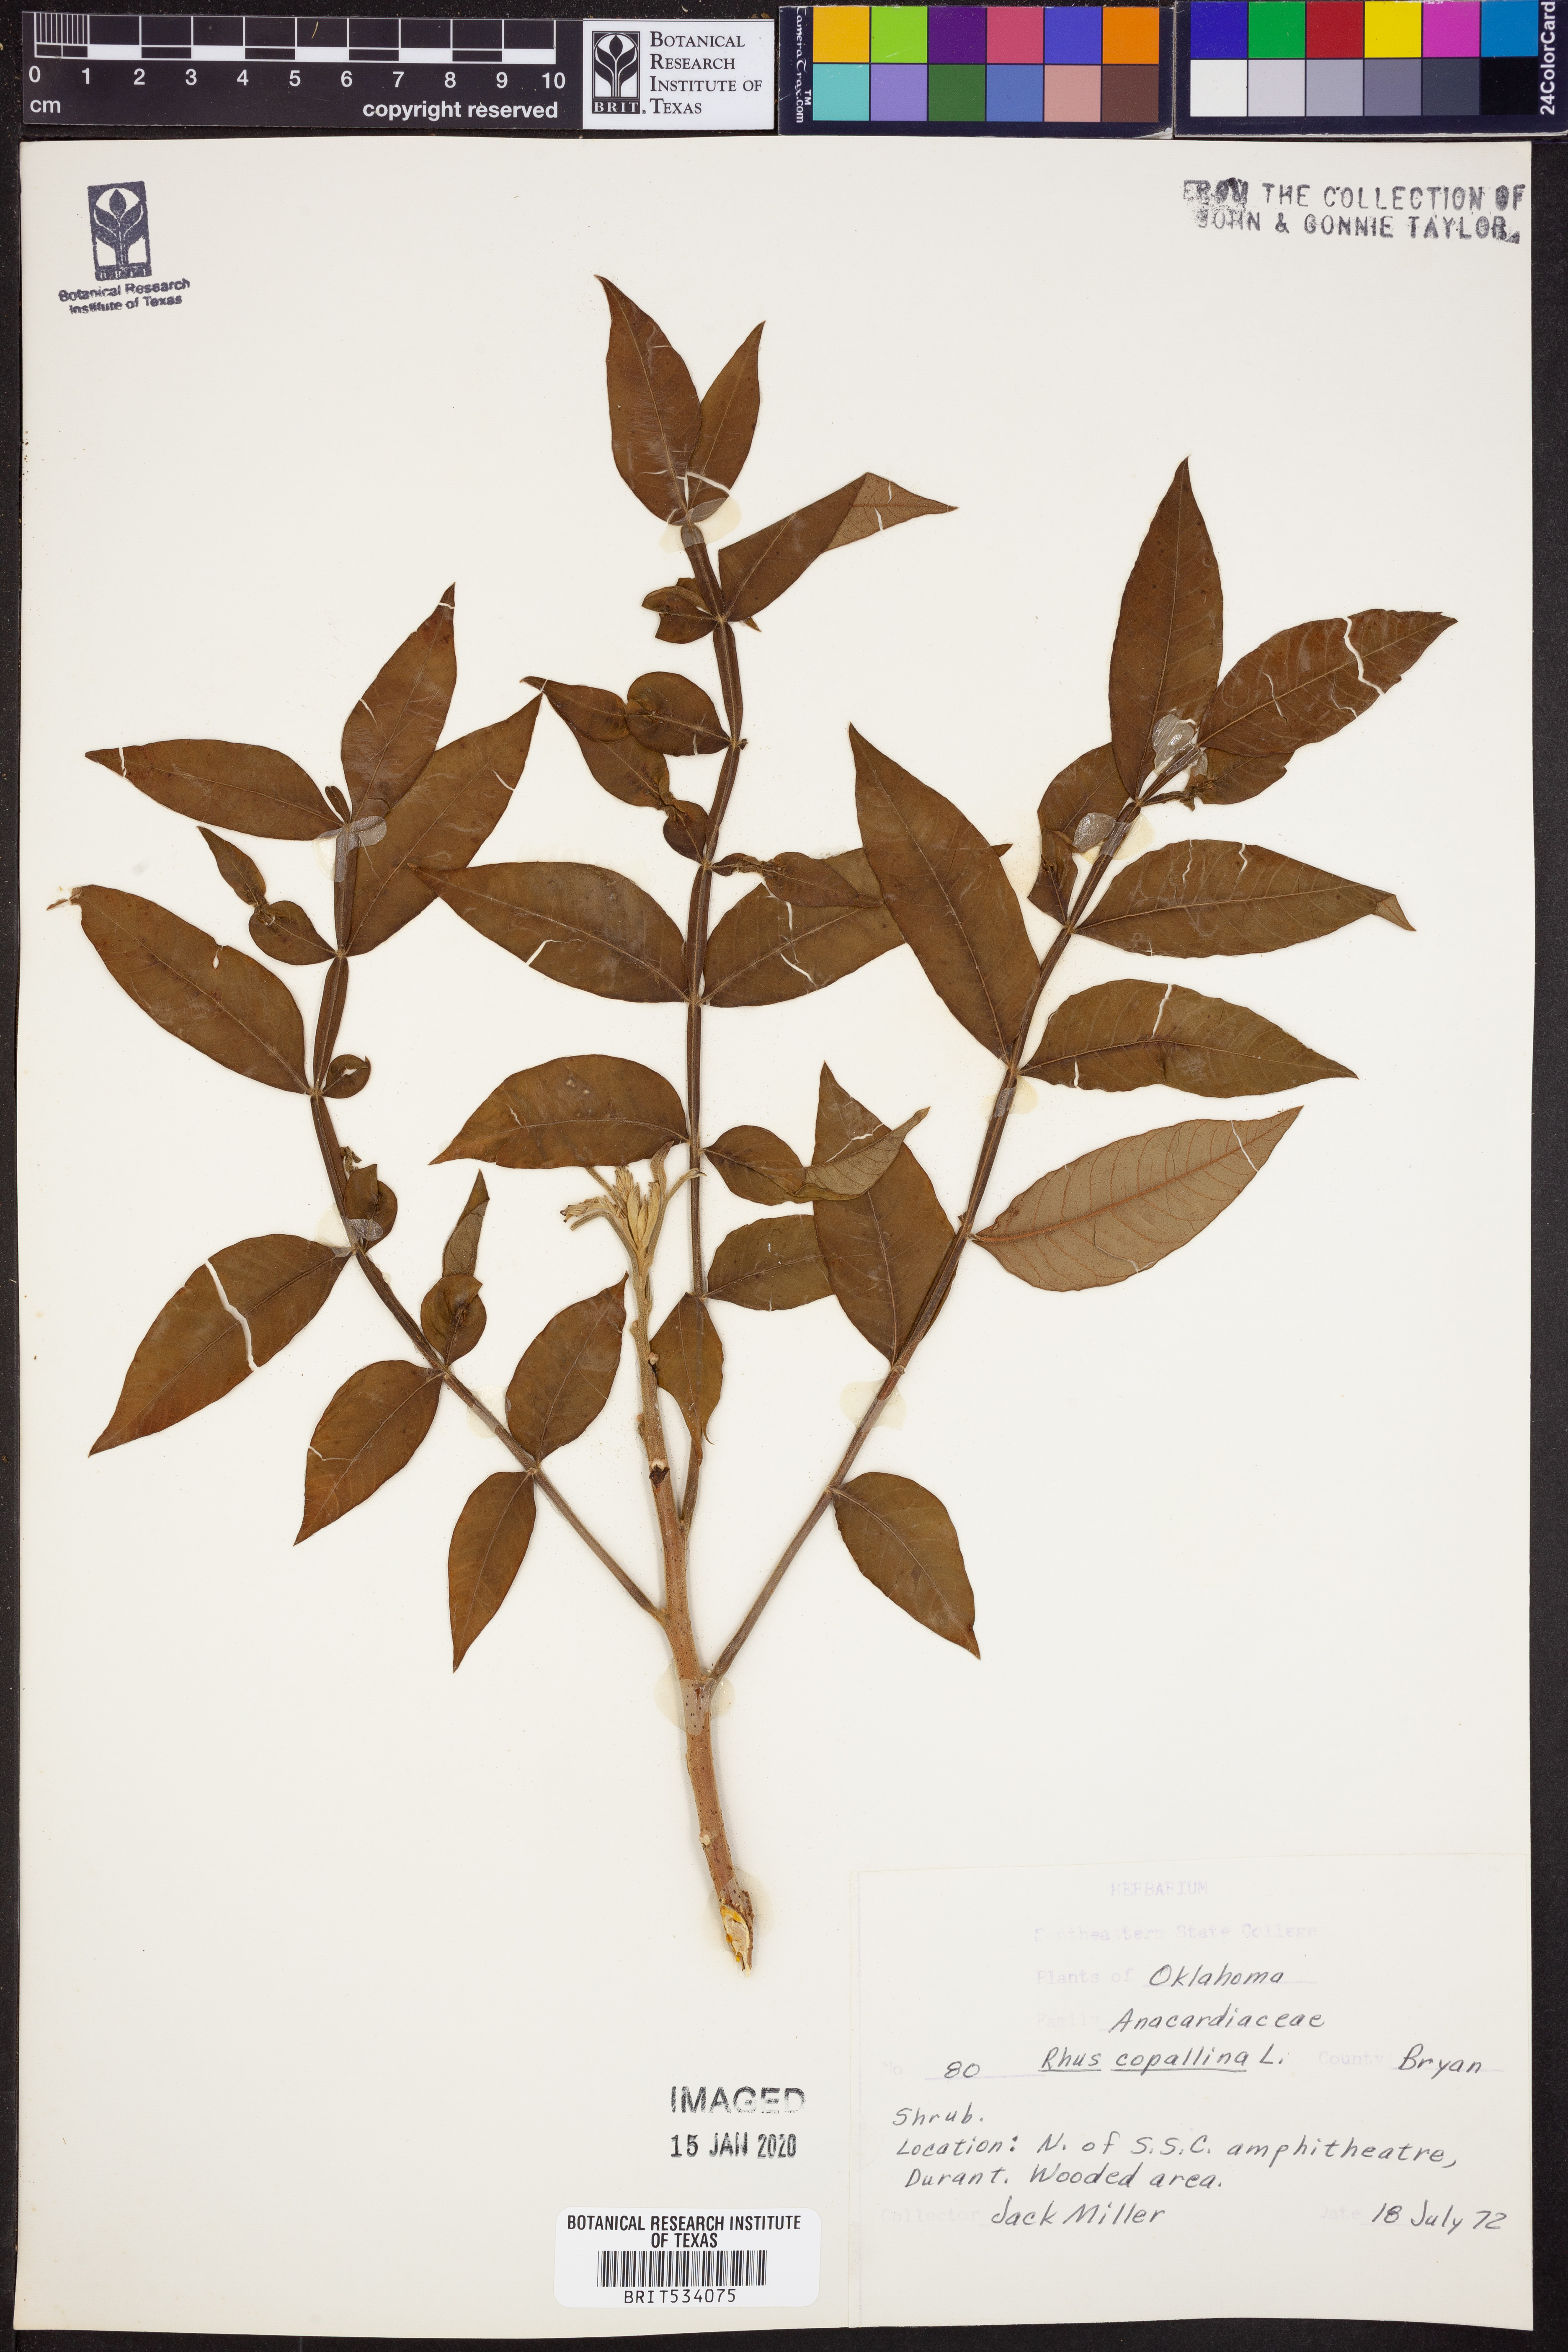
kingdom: Plantae
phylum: Tracheophyta
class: Magnoliopsida
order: Sapindales
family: Anacardiaceae
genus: Rhus
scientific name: Rhus copallina
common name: Shining sumac
